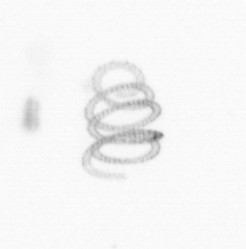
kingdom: Chromista
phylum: Ochrophyta
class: Bacillariophyceae
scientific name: Bacillariophyceae
